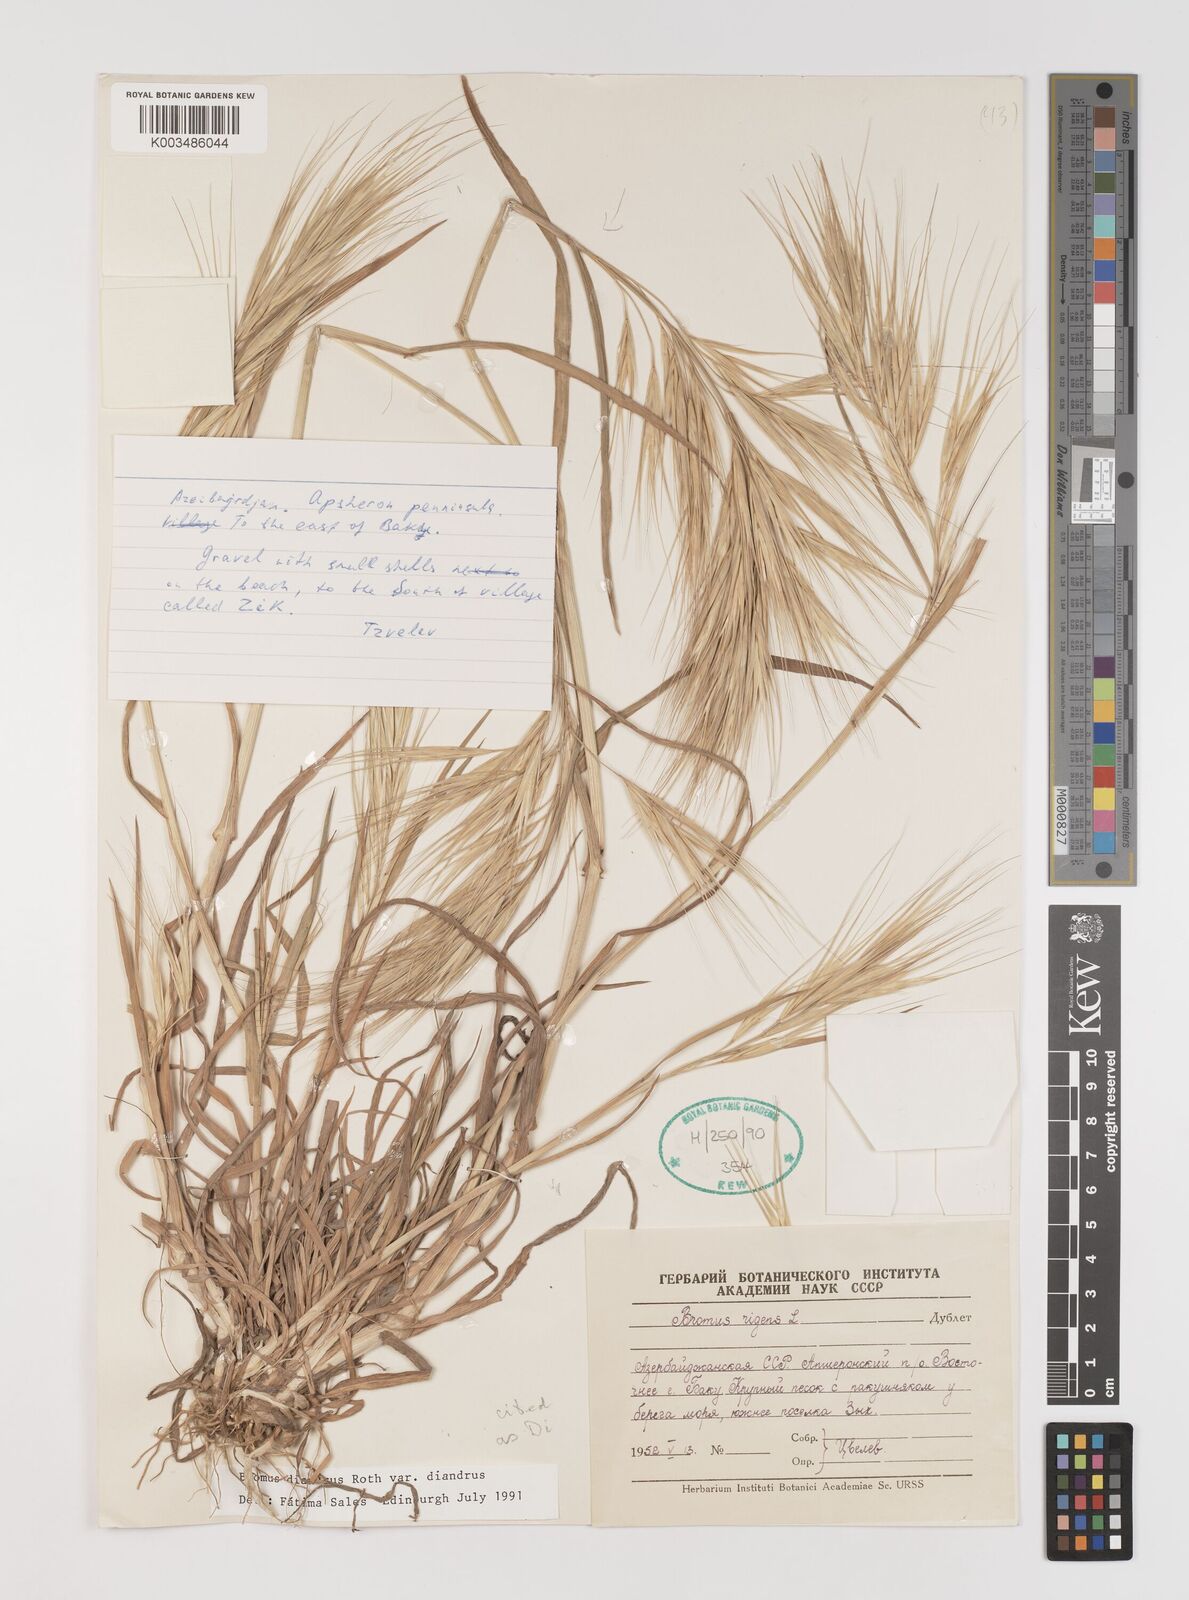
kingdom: Plantae
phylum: Tracheophyta
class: Liliopsida
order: Poales
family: Poaceae
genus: Bromus
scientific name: Bromus diandrus
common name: Ripgut brome
